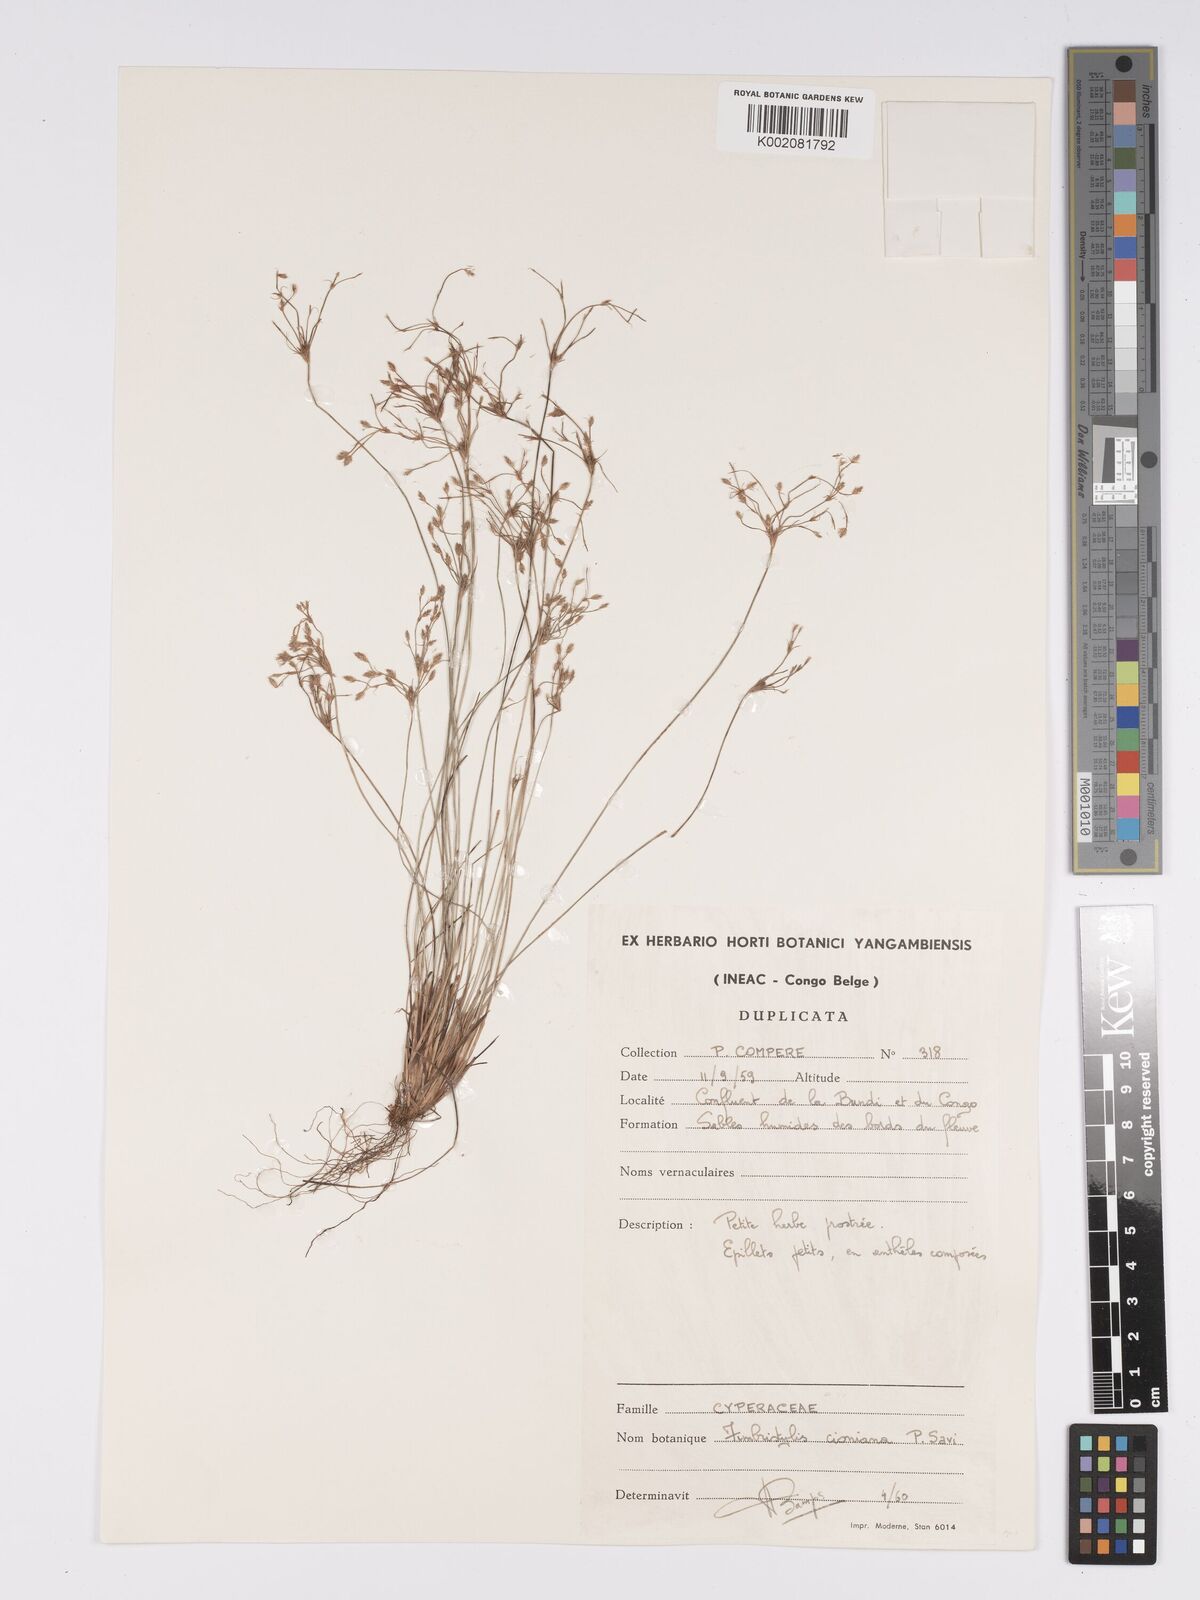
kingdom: Plantae
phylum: Tracheophyta
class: Liliopsida
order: Poales
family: Cyperaceae
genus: Bulbostylis
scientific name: Bulbostylis cioniana
